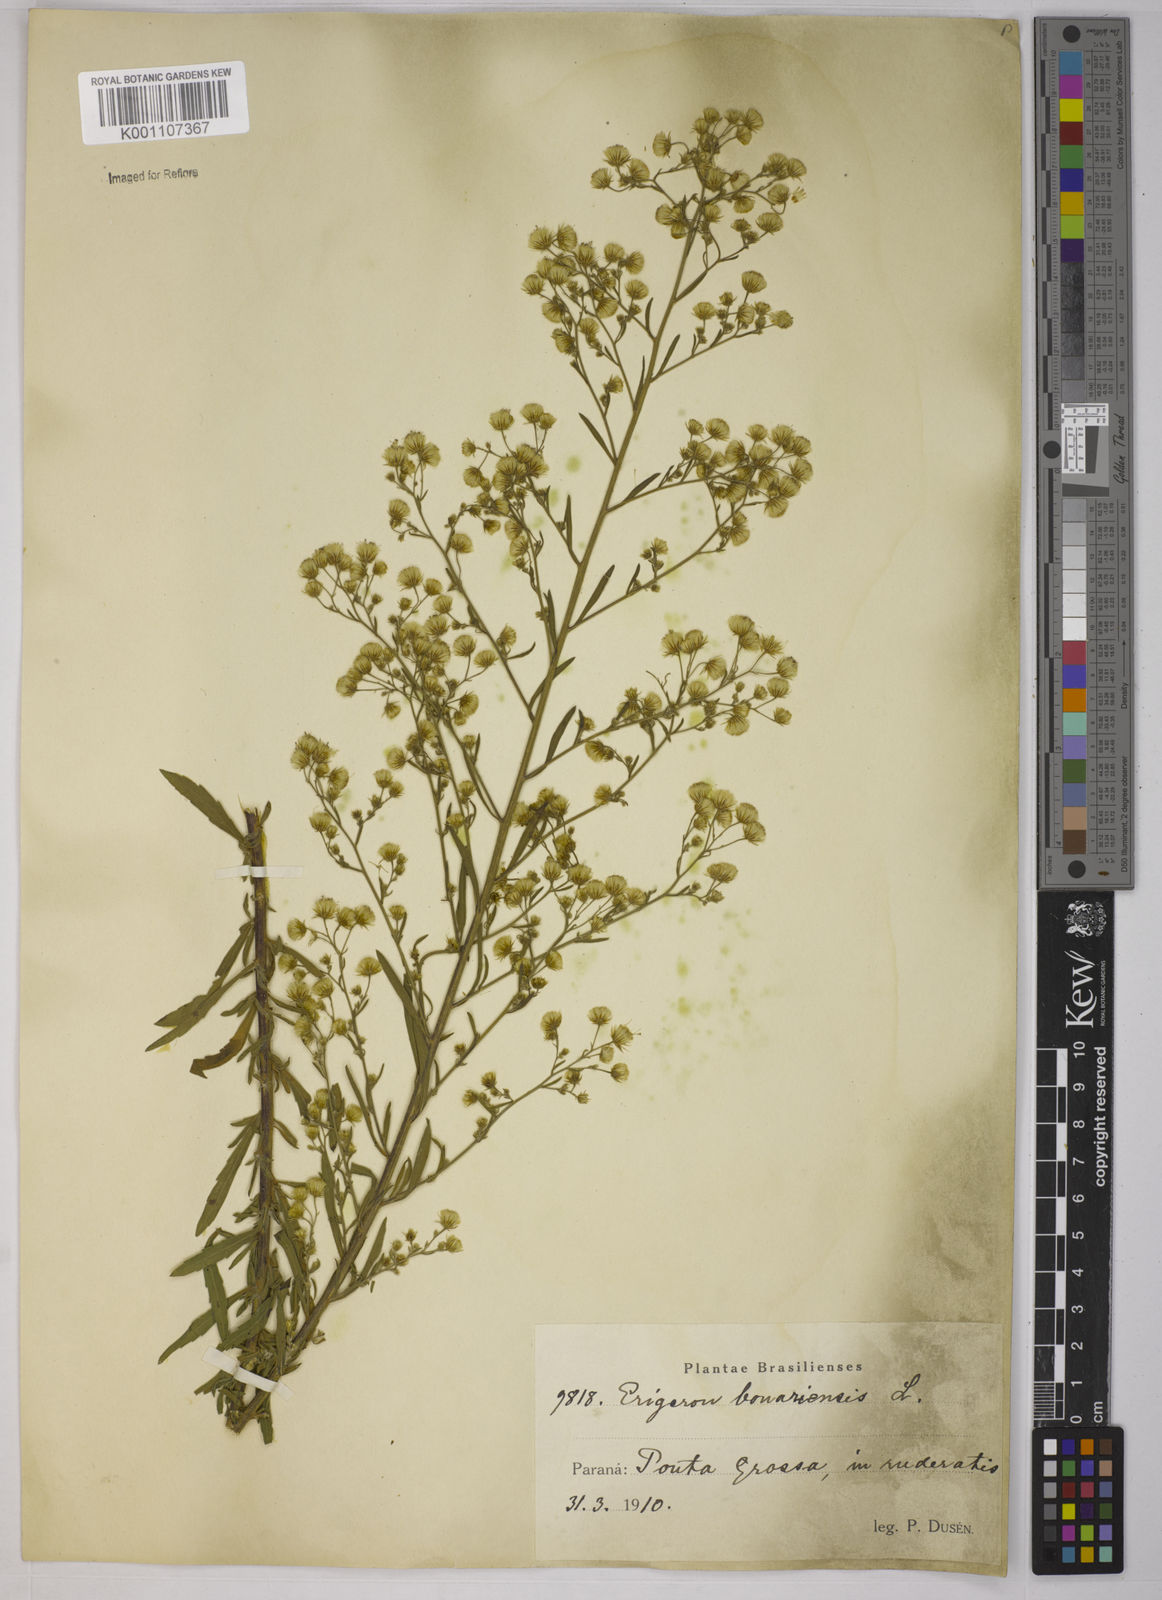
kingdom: Plantae
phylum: Tracheophyta
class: Magnoliopsida
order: Asterales
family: Asteraceae
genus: Erigeron
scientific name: Erigeron bonariensis
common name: Argentine fleabane
